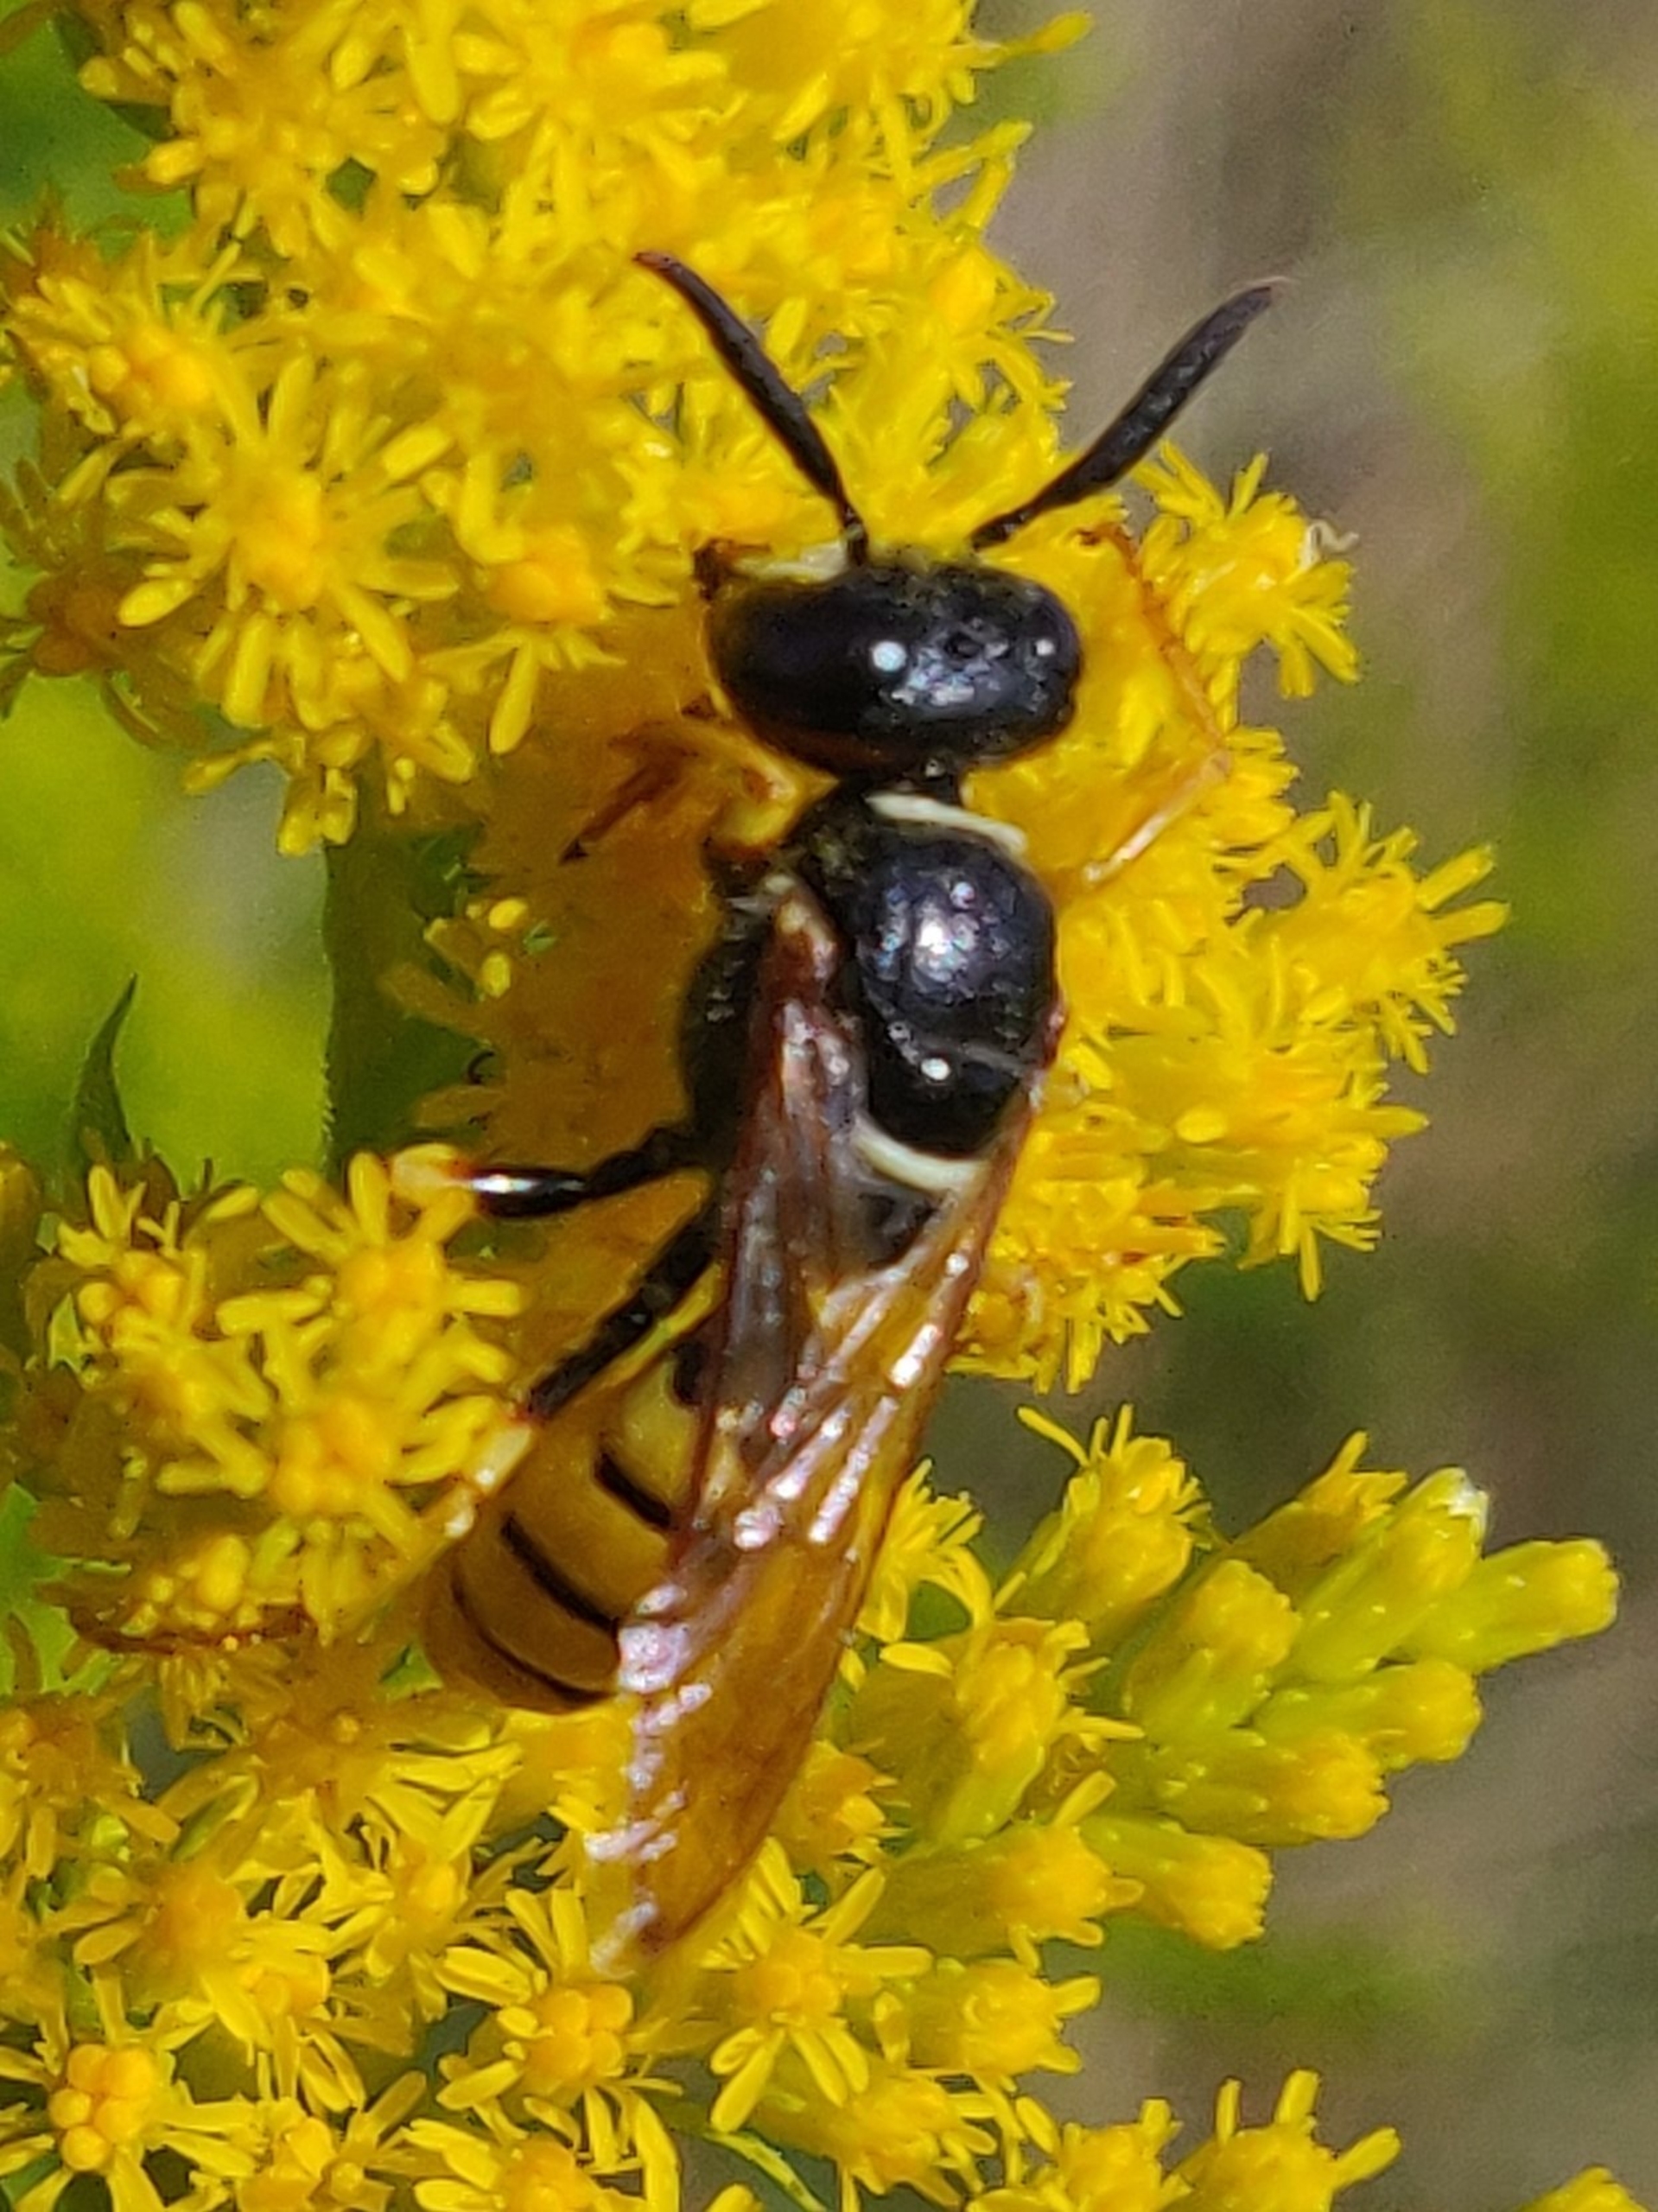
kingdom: Animalia
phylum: Arthropoda
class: Insecta
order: Hymenoptera
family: Crabronidae
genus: Philanthus
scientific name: Philanthus triangulum
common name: Biulv
